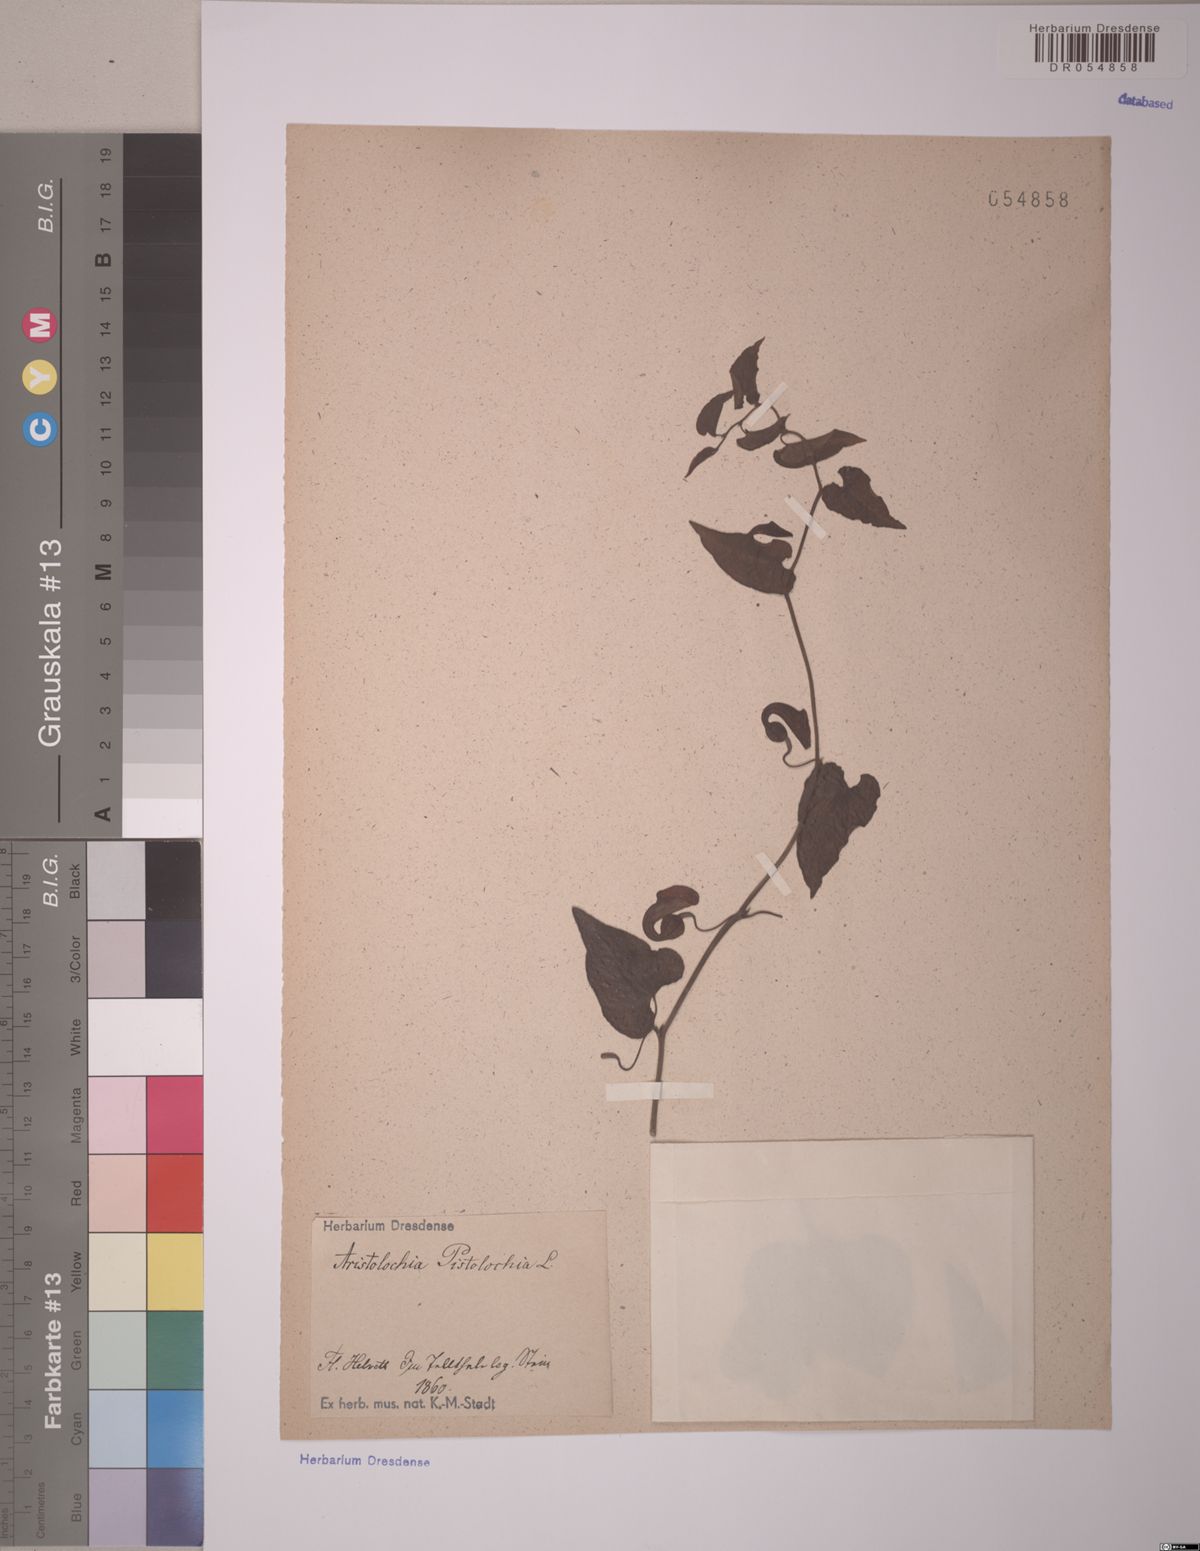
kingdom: Plantae
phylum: Tracheophyta
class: Magnoliopsida
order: Piperales
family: Aristolochiaceae
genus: Aristolochia
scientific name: Aristolochia pistolochia
